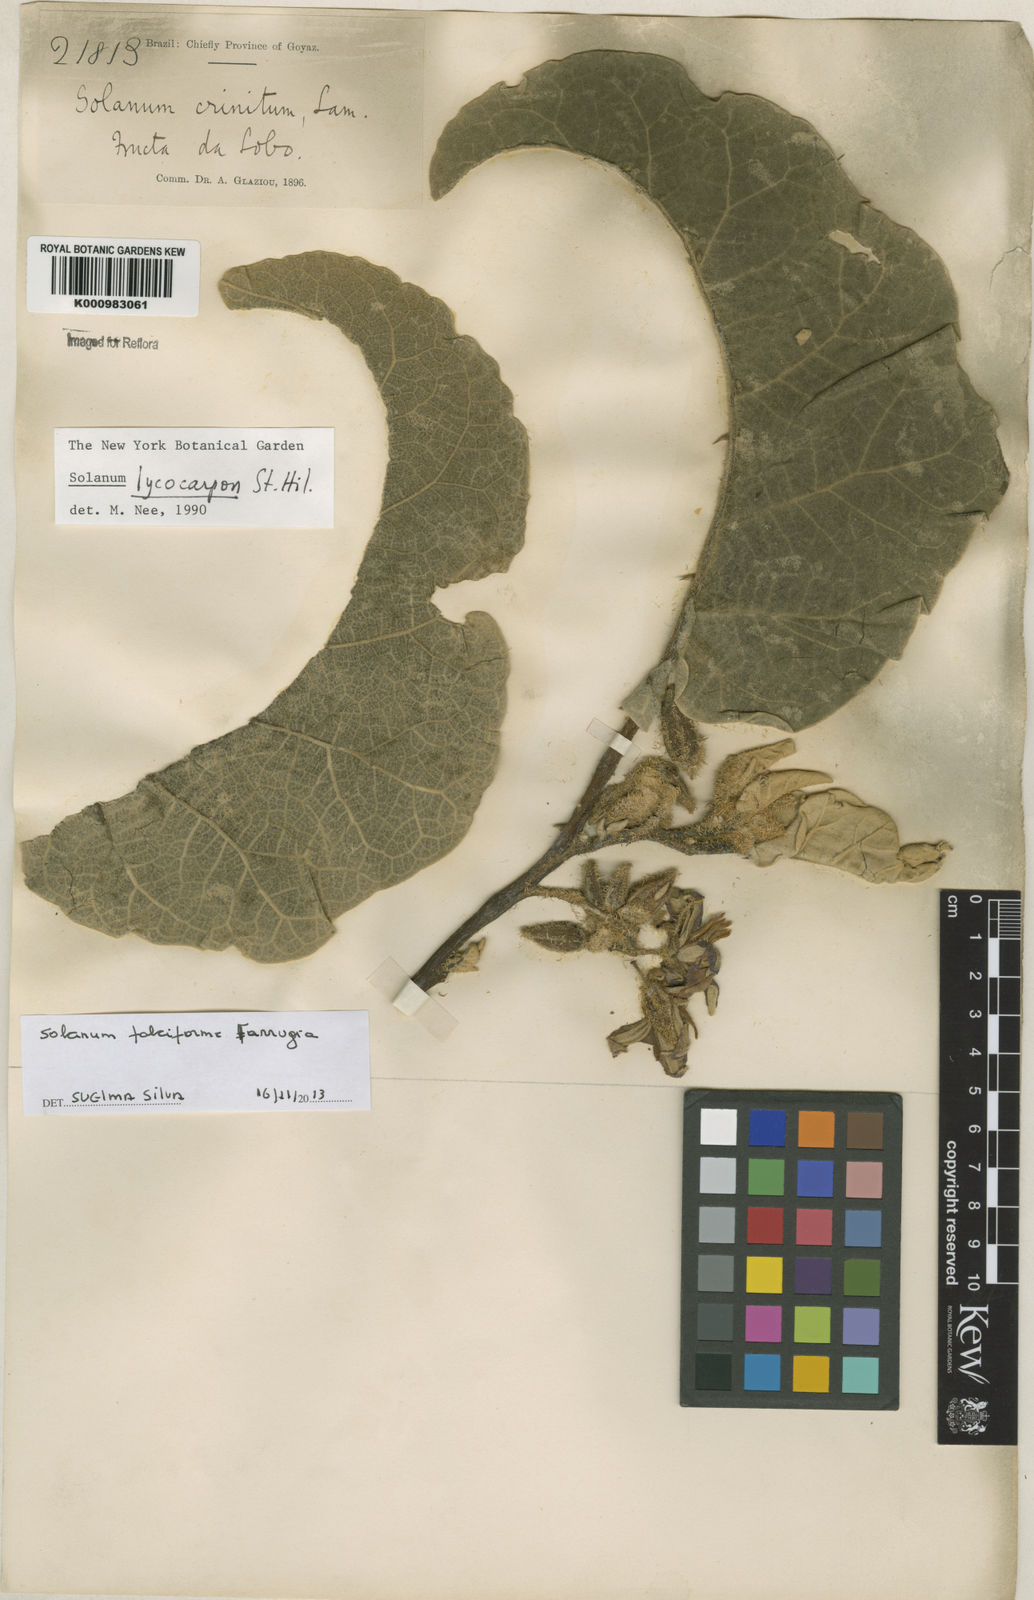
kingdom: Plantae
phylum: Tracheophyta
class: Magnoliopsida
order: Solanales
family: Solanaceae
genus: Solanum
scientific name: Solanum
